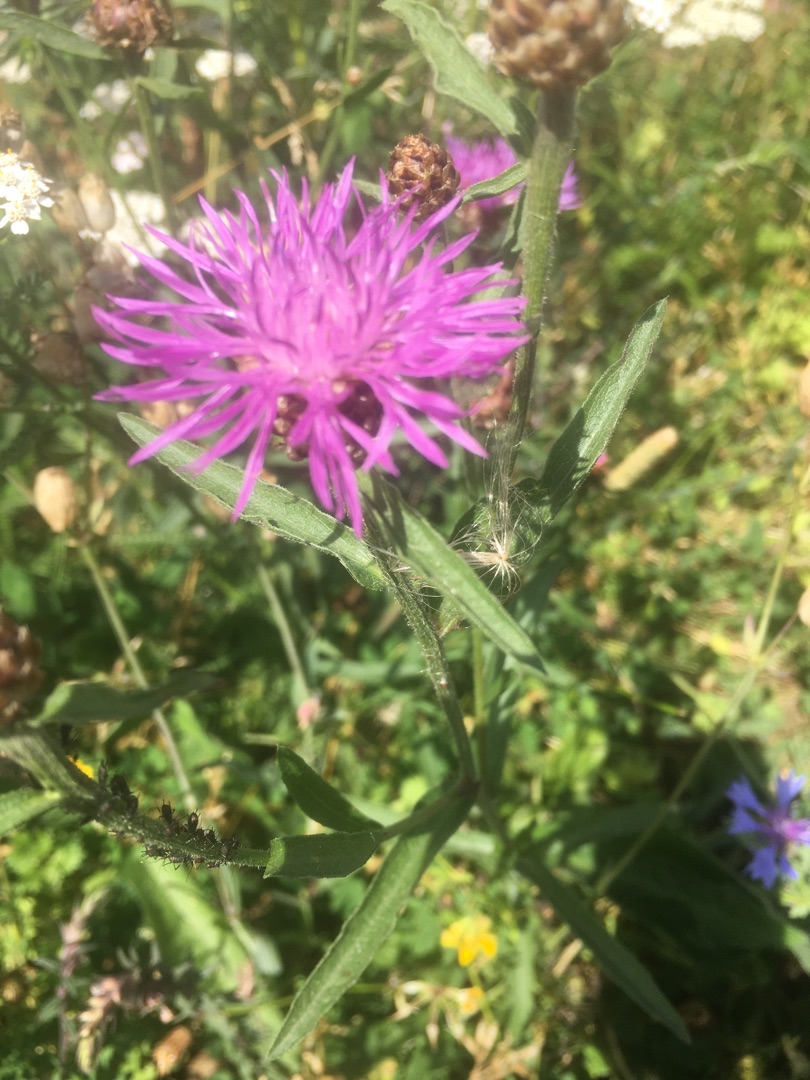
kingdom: Plantae
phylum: Tracheophyta
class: Magnoliopsida
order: Asterales
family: Asteraceae
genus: Centaurea
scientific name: Centaurea jacea
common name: Almindelig knopurt
